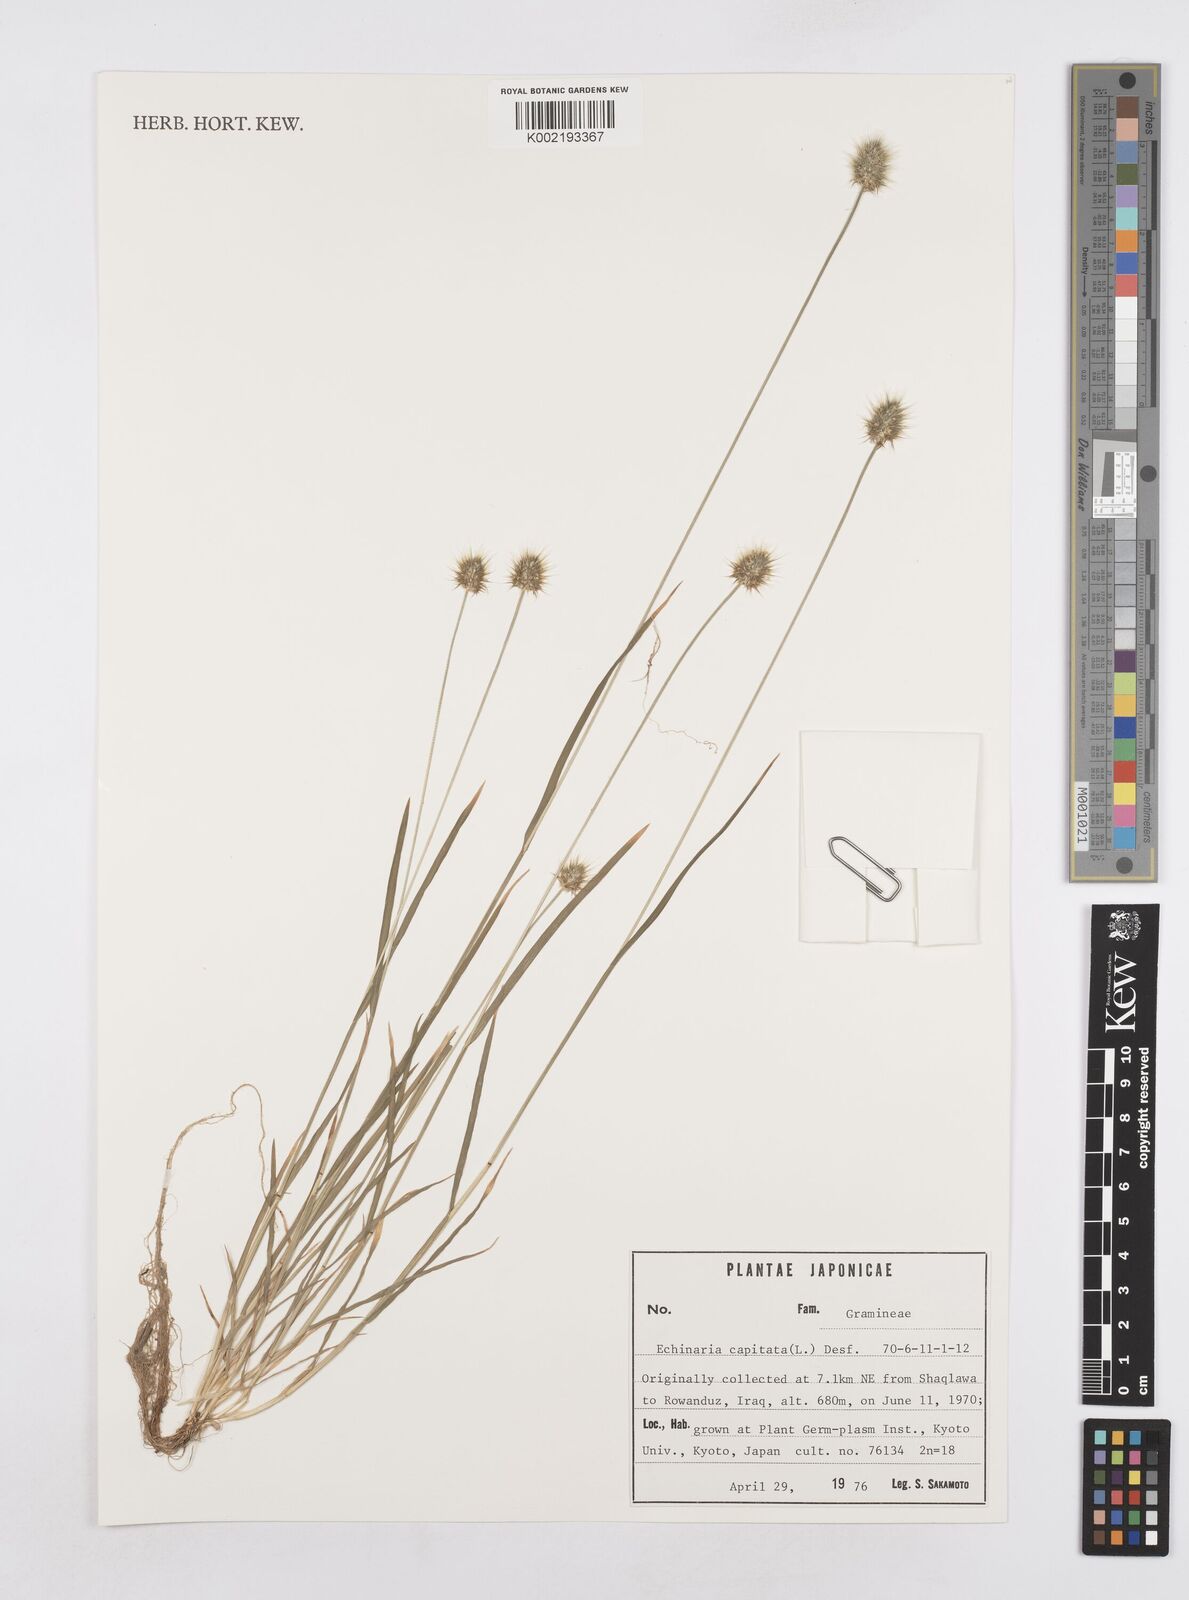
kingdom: Plantae
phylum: Tracheophyta
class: Liliopsida
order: Poales
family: Poaceae
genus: Echinaria
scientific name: Echinaria capitata
